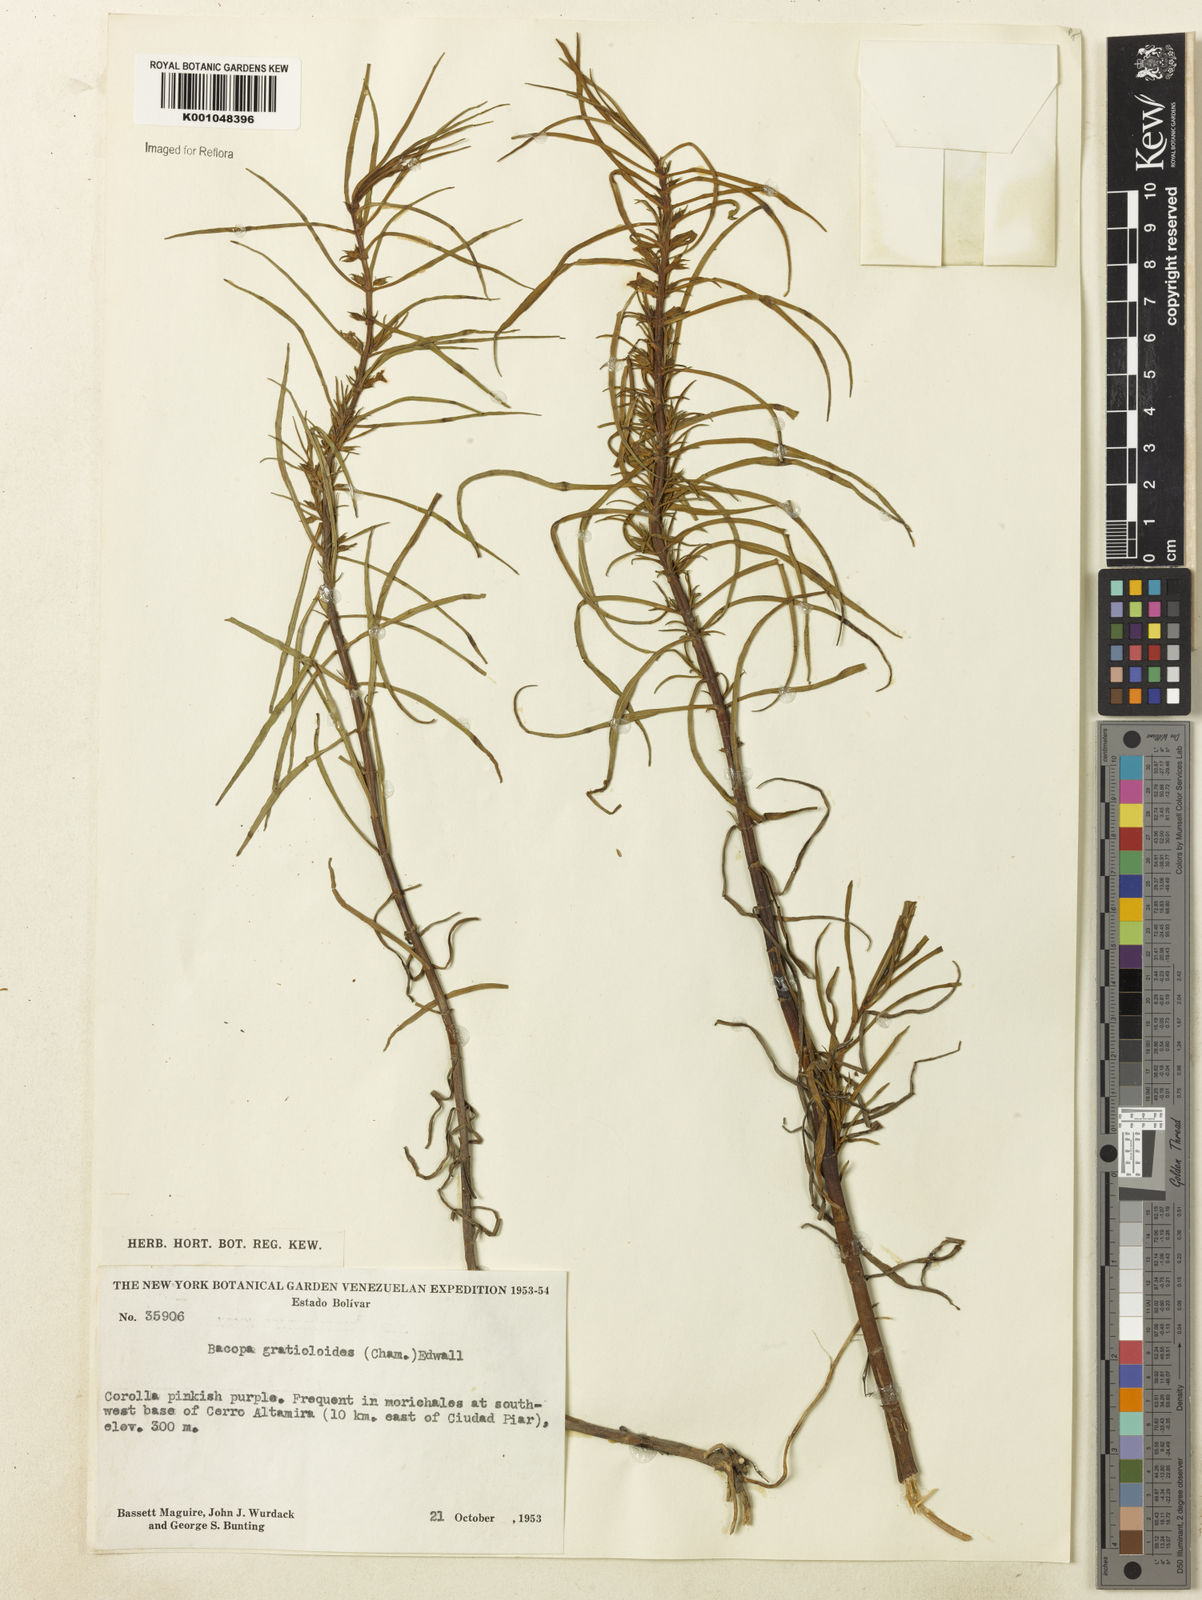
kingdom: Plantae
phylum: Tracheophyta
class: Magnoliopsida
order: Lamiales
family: Plantaginaceae
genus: Bacopa
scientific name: Bacopa
